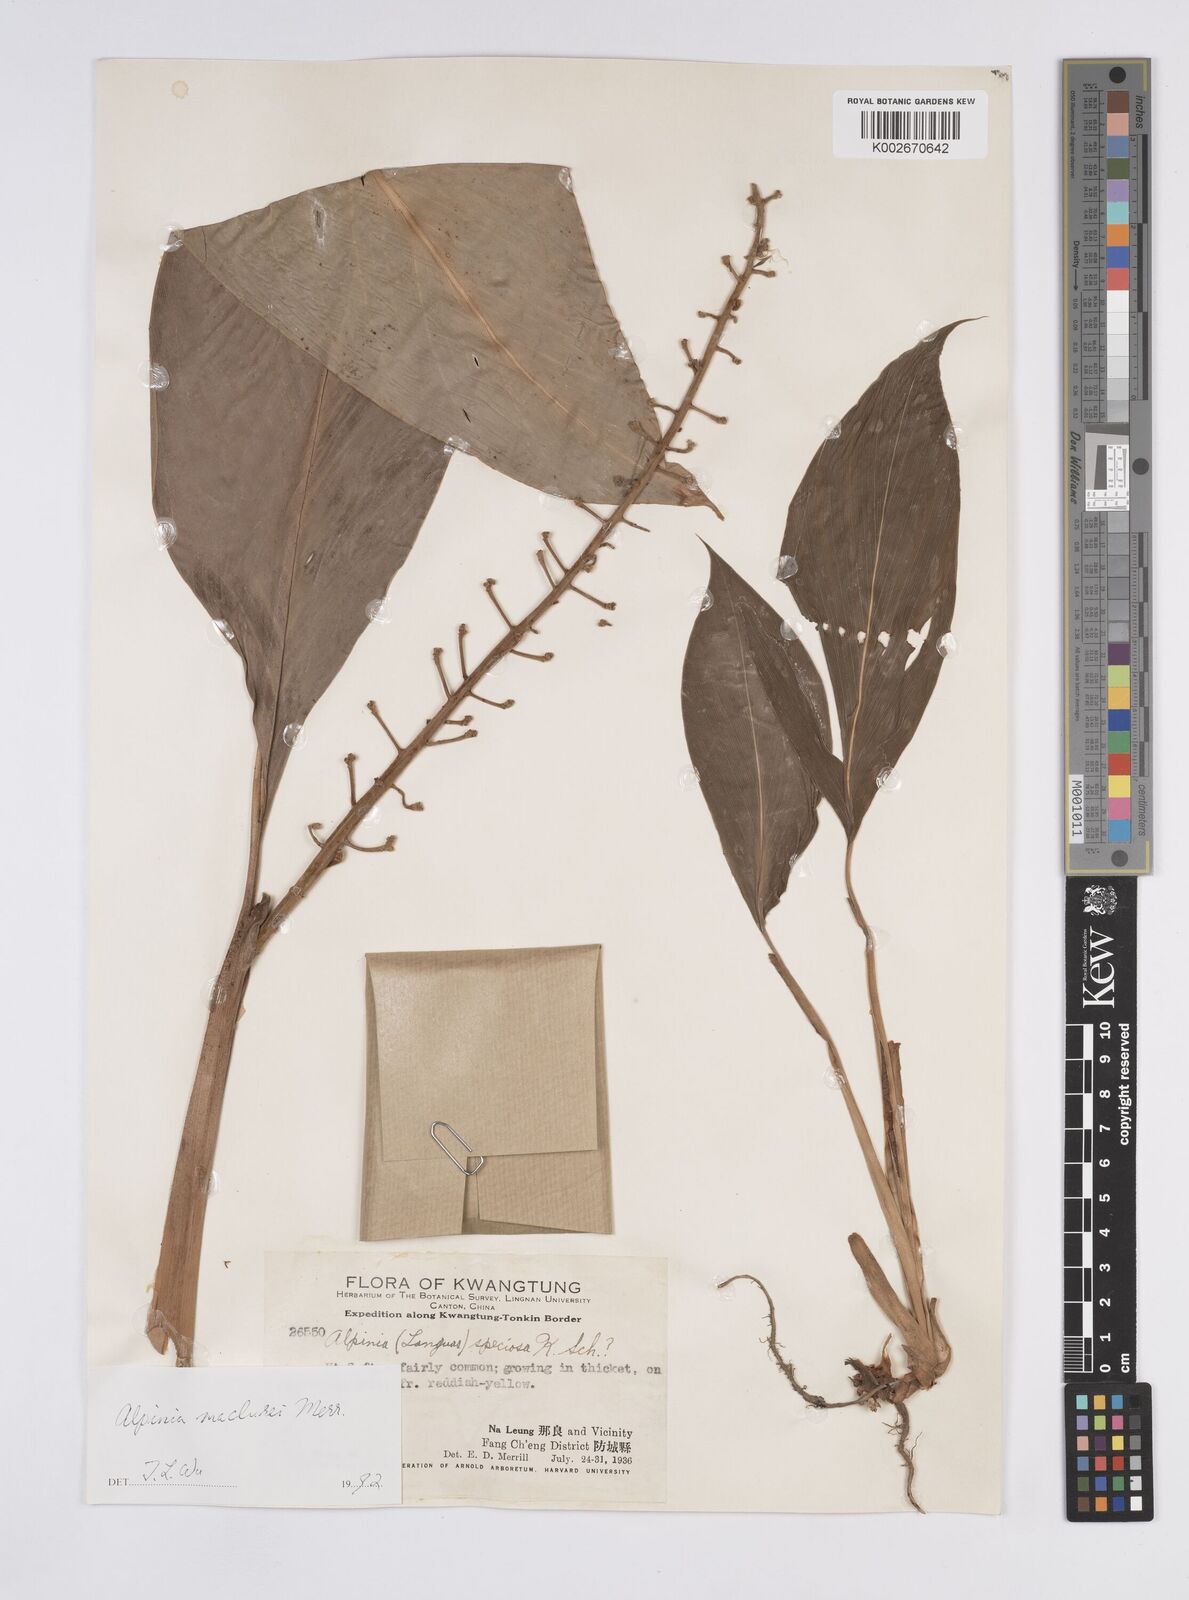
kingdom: Plantae
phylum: Tracheophyta
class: Liliopsida
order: Zingiberales
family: Zingiberaceae
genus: Alpinia
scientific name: Alpinia maclurei
